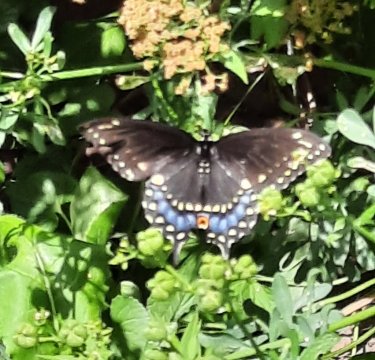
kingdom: Animalia
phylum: Arthropoda
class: Insecta
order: Lepidoptera
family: Papilionidae
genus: Papilio
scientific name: Papilio polyxenes
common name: Black Swallowtail
